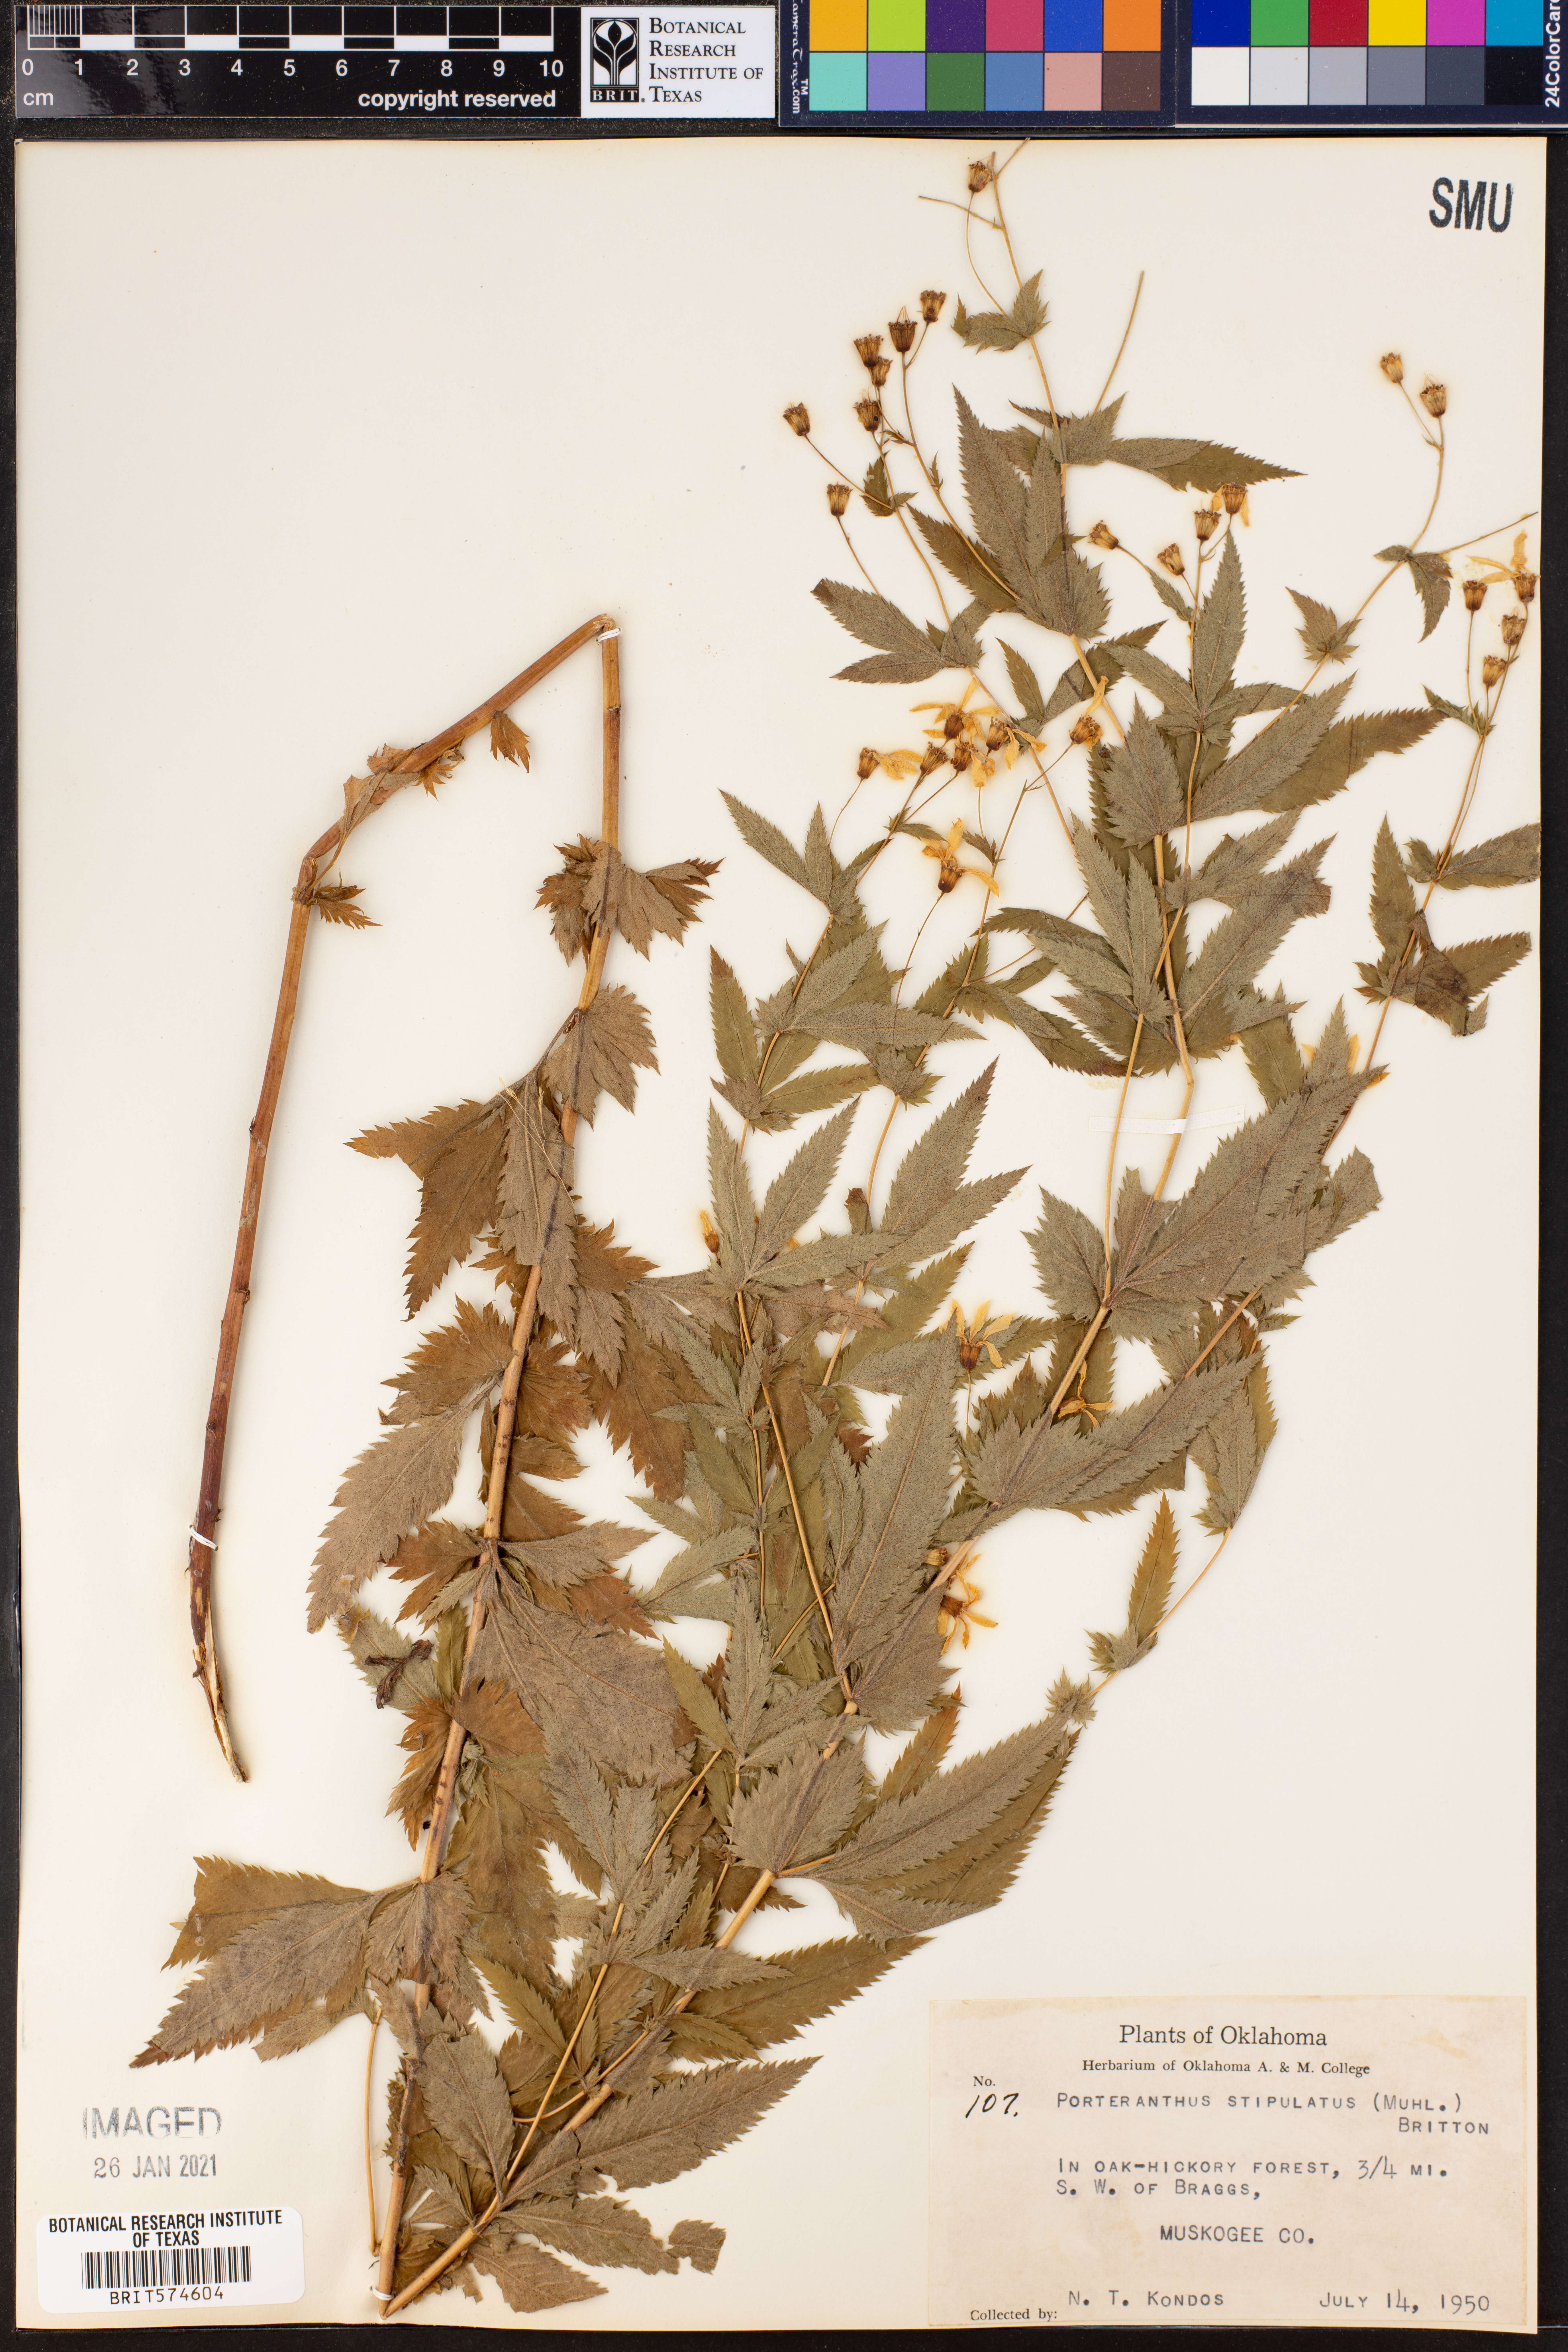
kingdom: Plantae
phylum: Tracheophyta
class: Magnoliopsida
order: Rosales
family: Rosaceae
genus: Gillenia
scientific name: Gillenia stipulata
